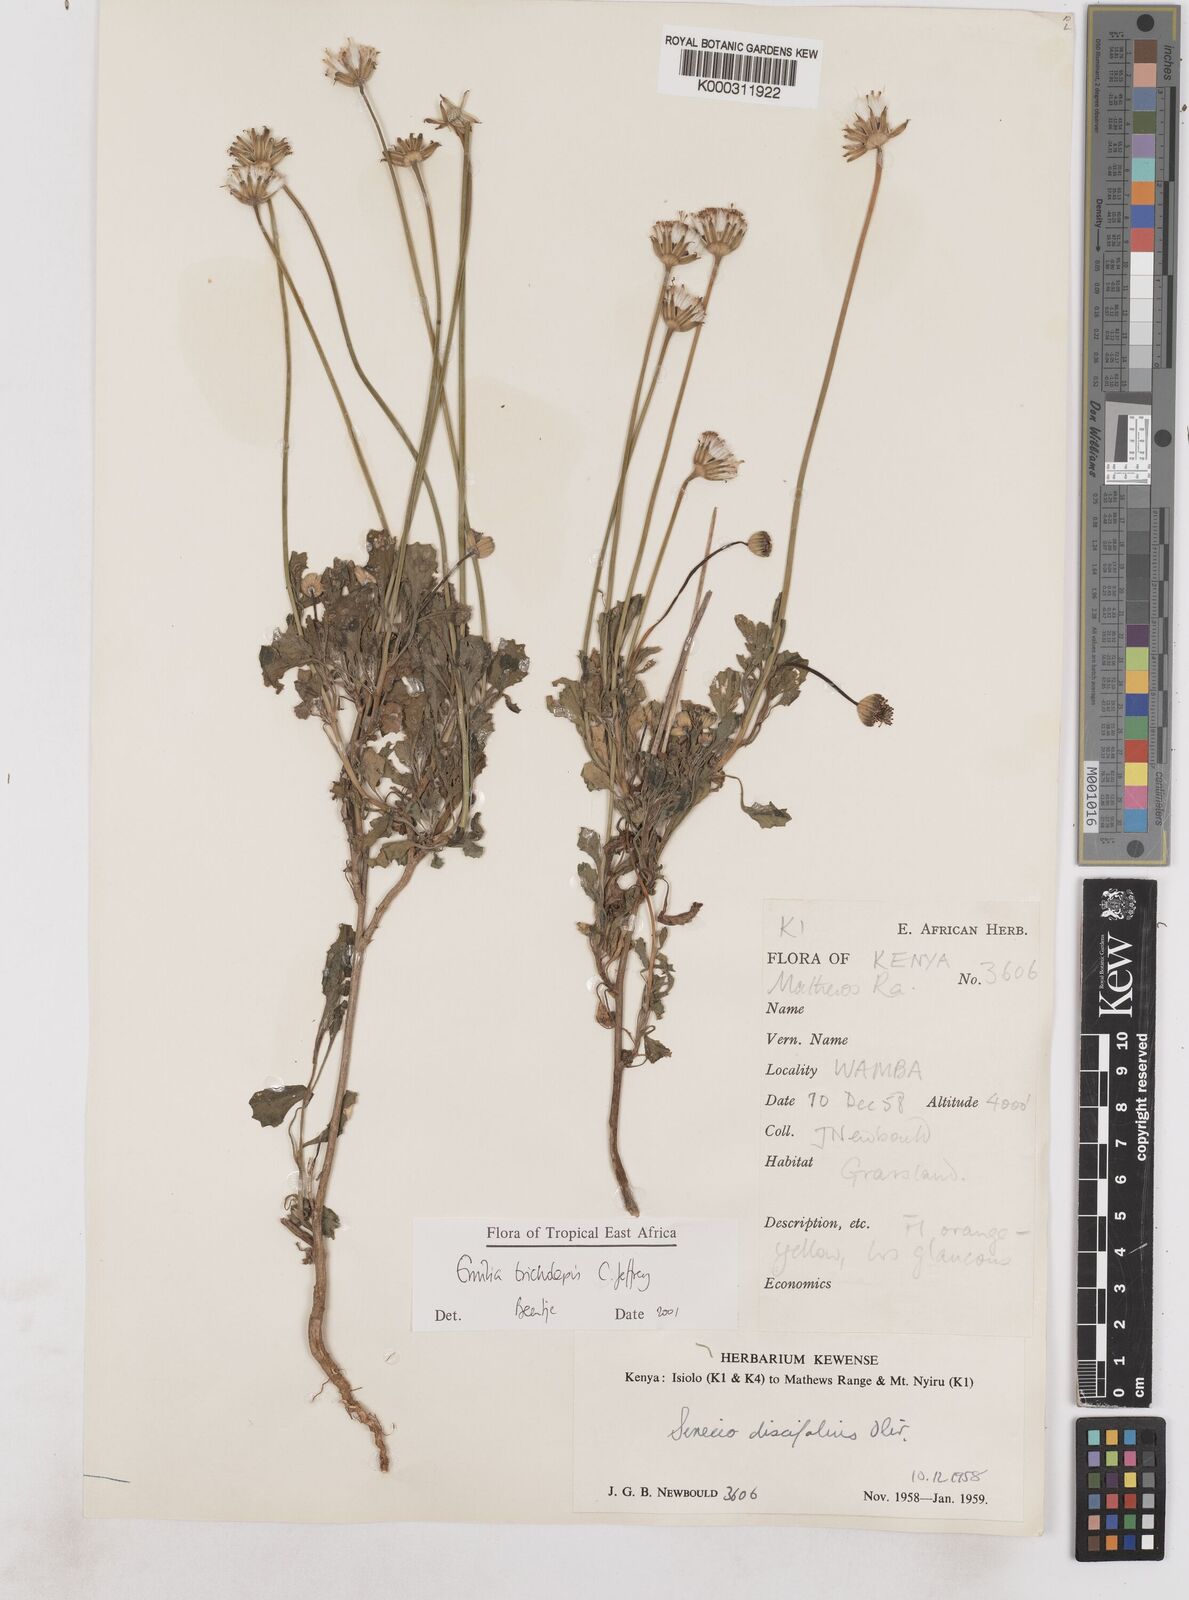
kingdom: Plantae
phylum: Tracheophyta
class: Magnoliopsida
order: Asterales
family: Asteraceae
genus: Emilia
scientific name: Emilia tricholepis
